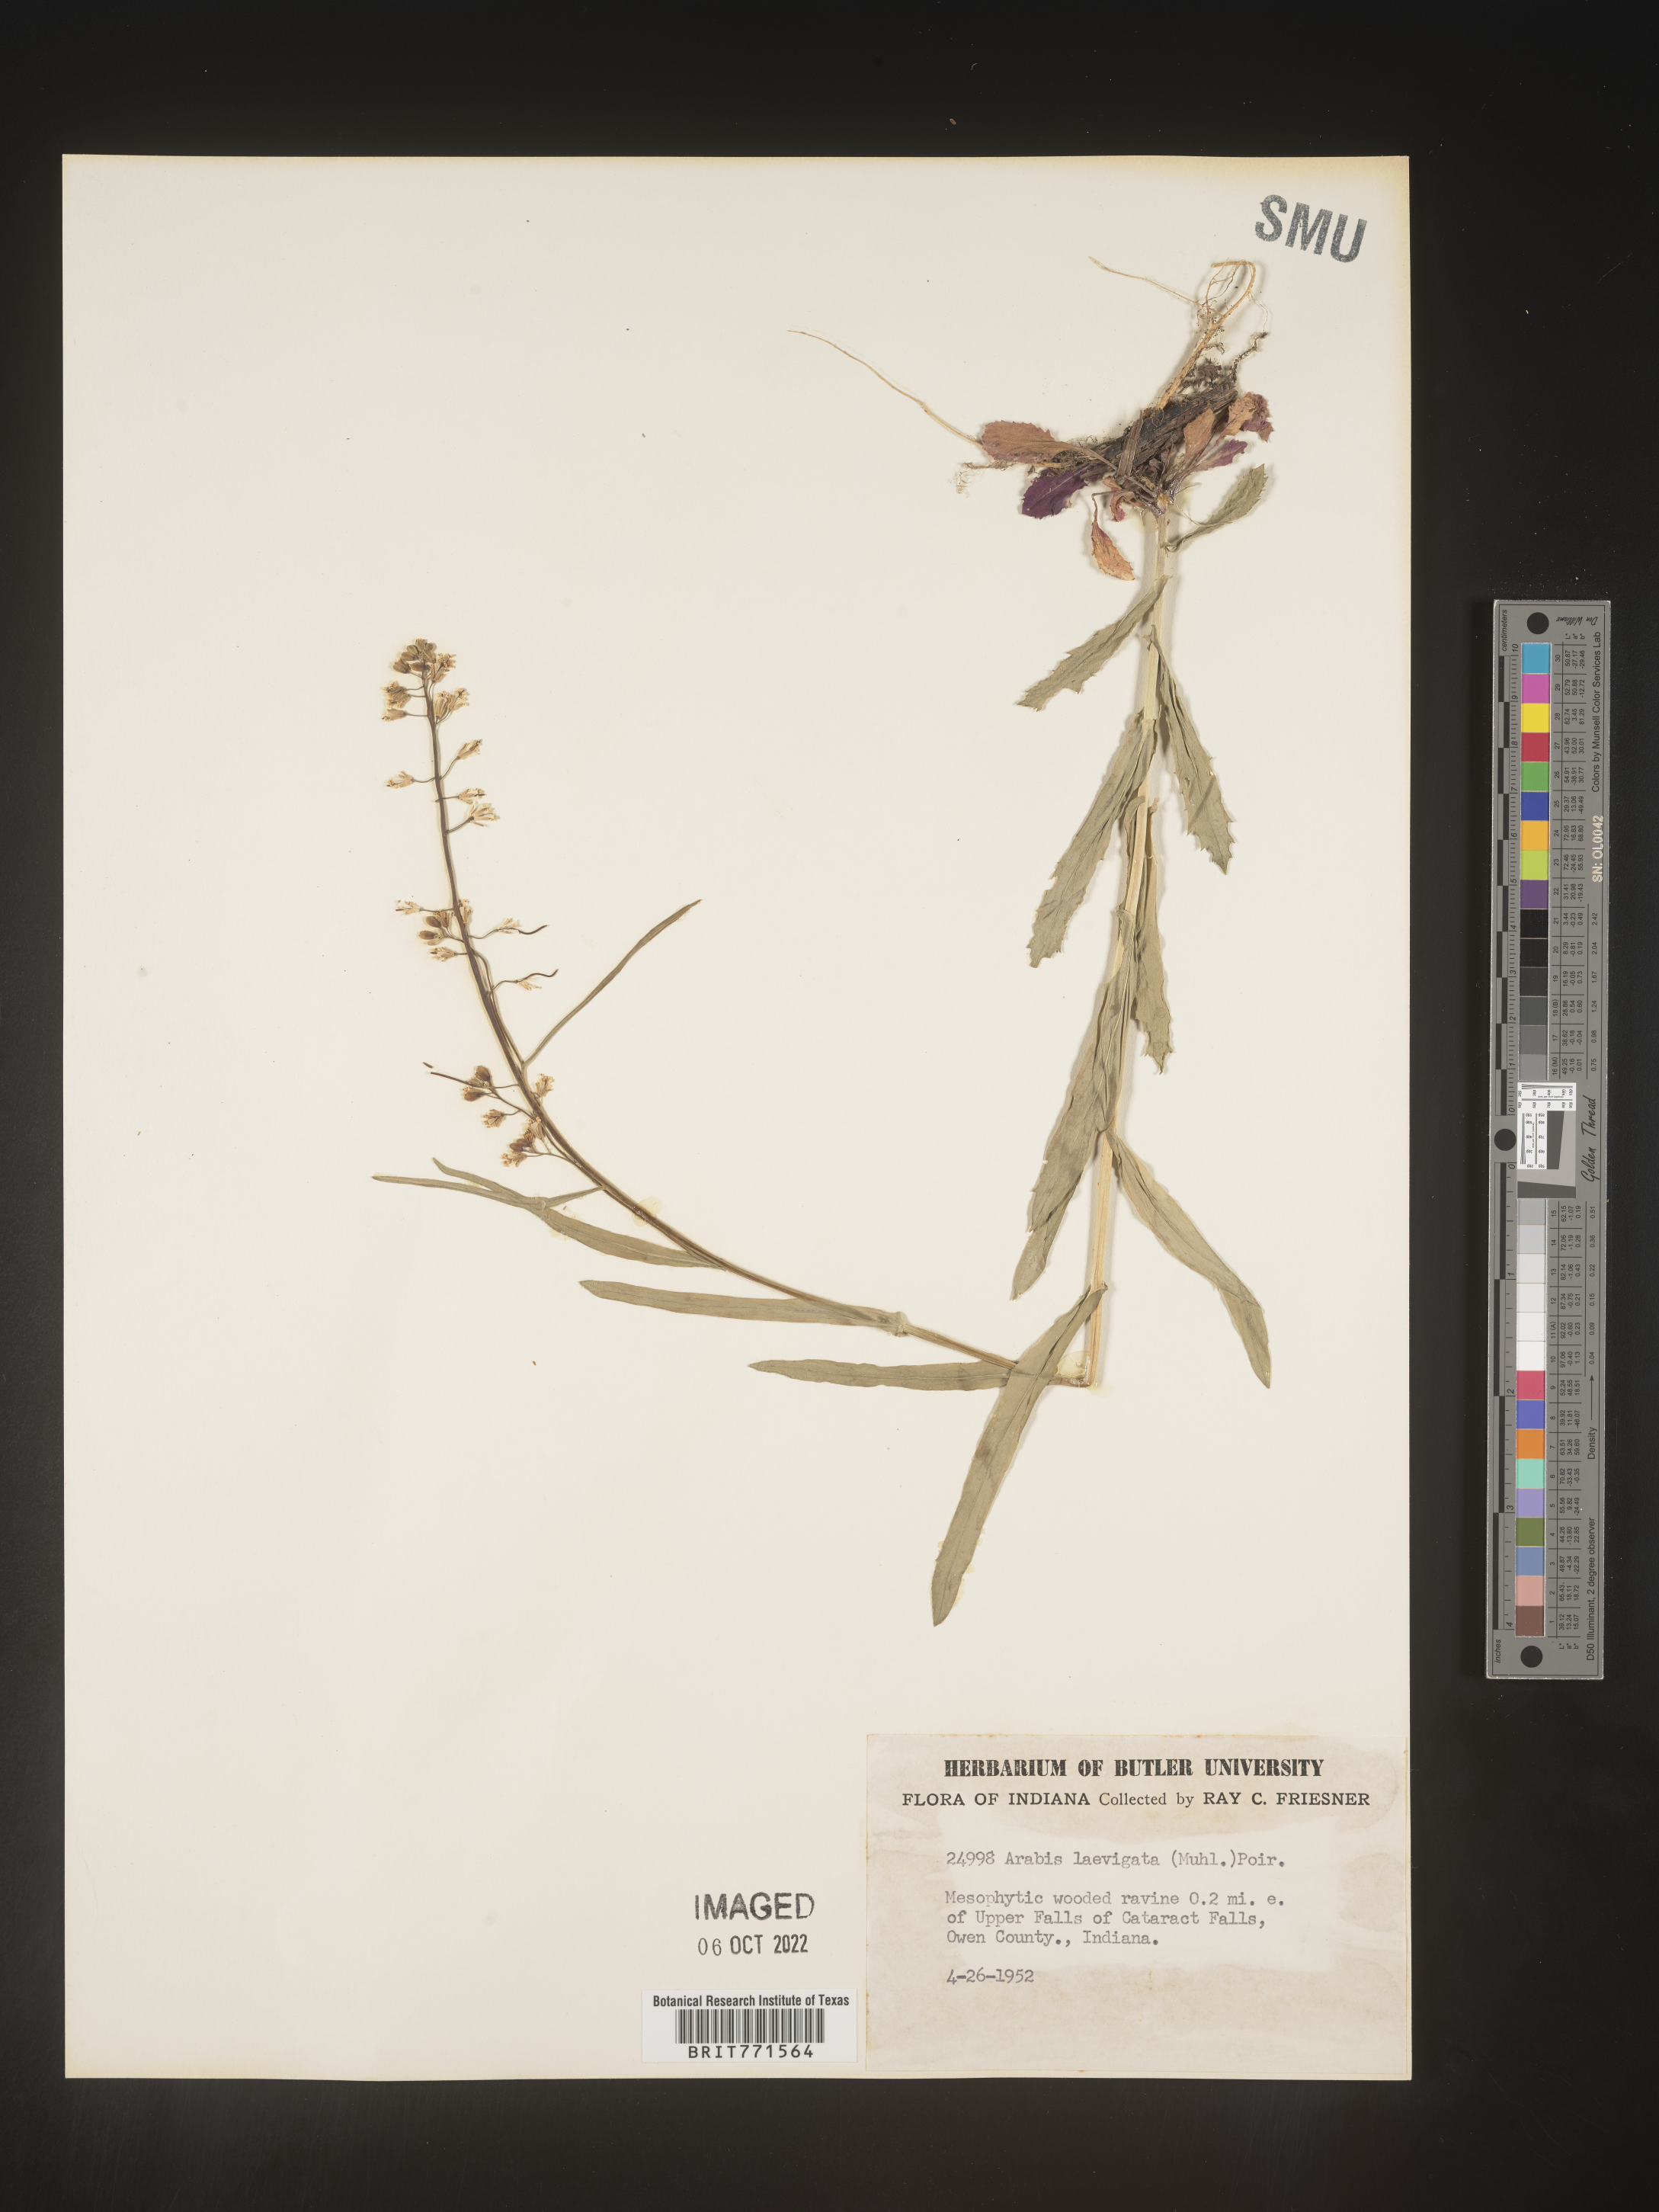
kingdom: Plantae
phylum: Tracheophyta
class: Magnoliopsida
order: Brassicales
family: Brassicaceae
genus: Arabis
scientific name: Arabis laevigata
